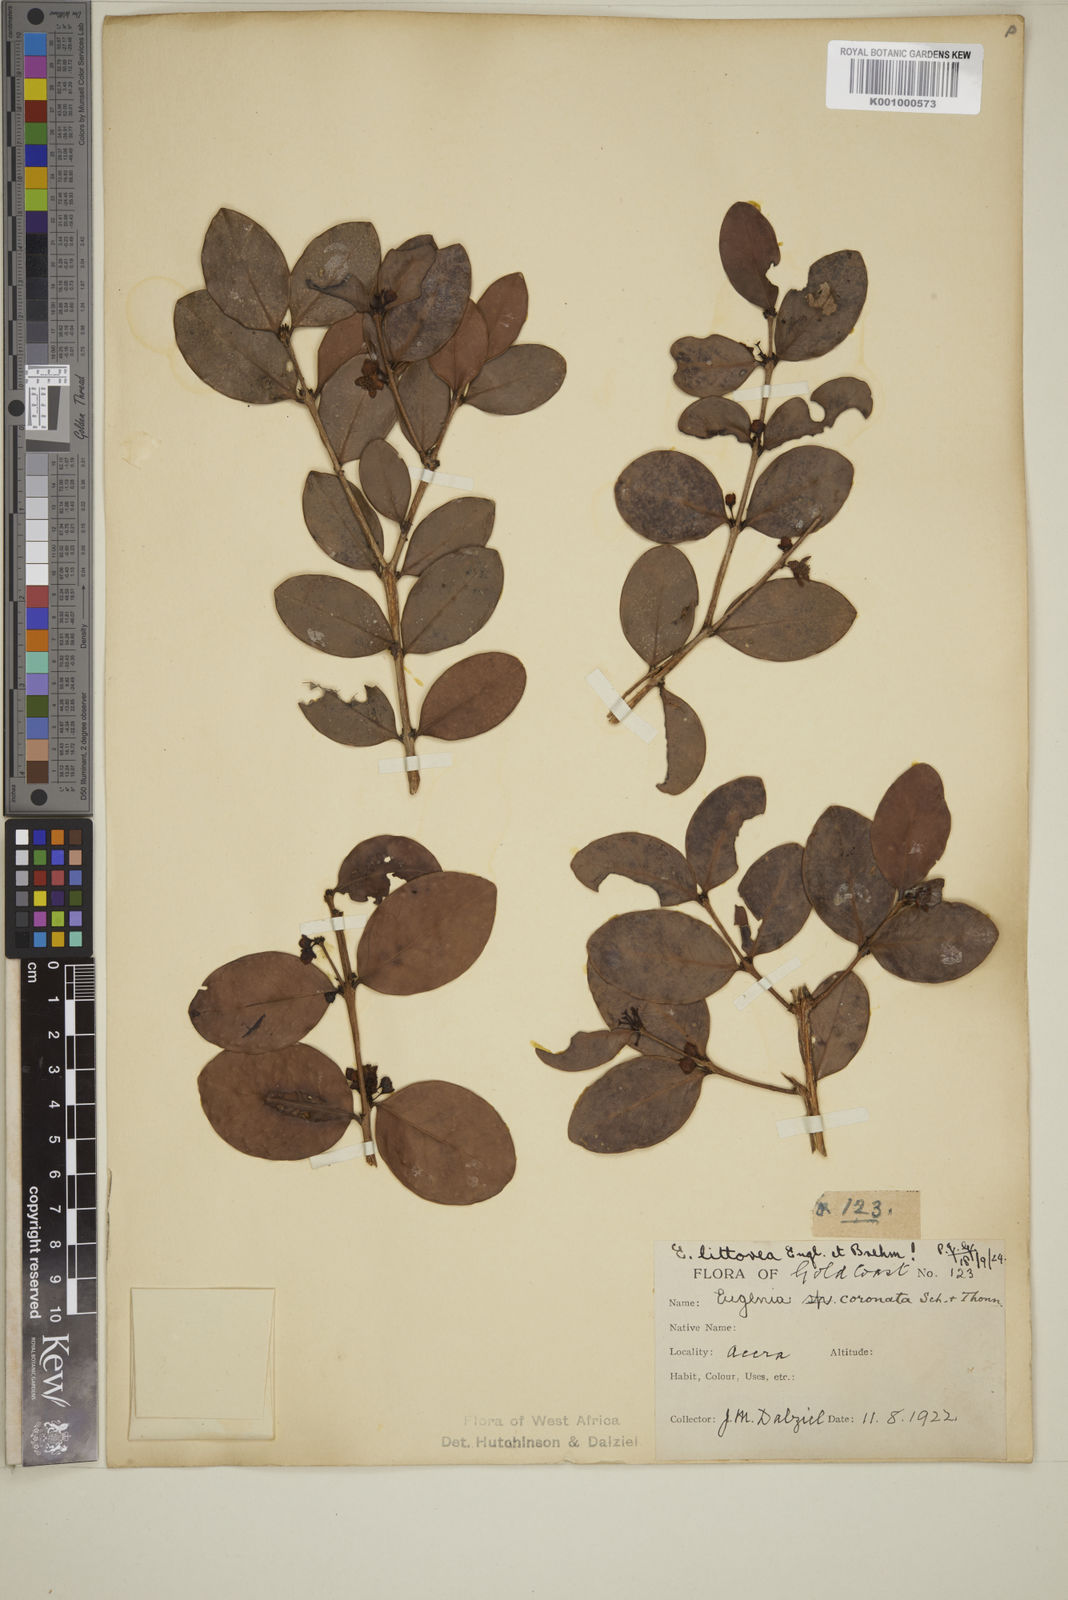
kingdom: Plantae
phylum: Tracheophyta
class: Magnoliopsida
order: Myrtales
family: Myrtaceae
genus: Eugenia
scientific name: Eugenia coronata
